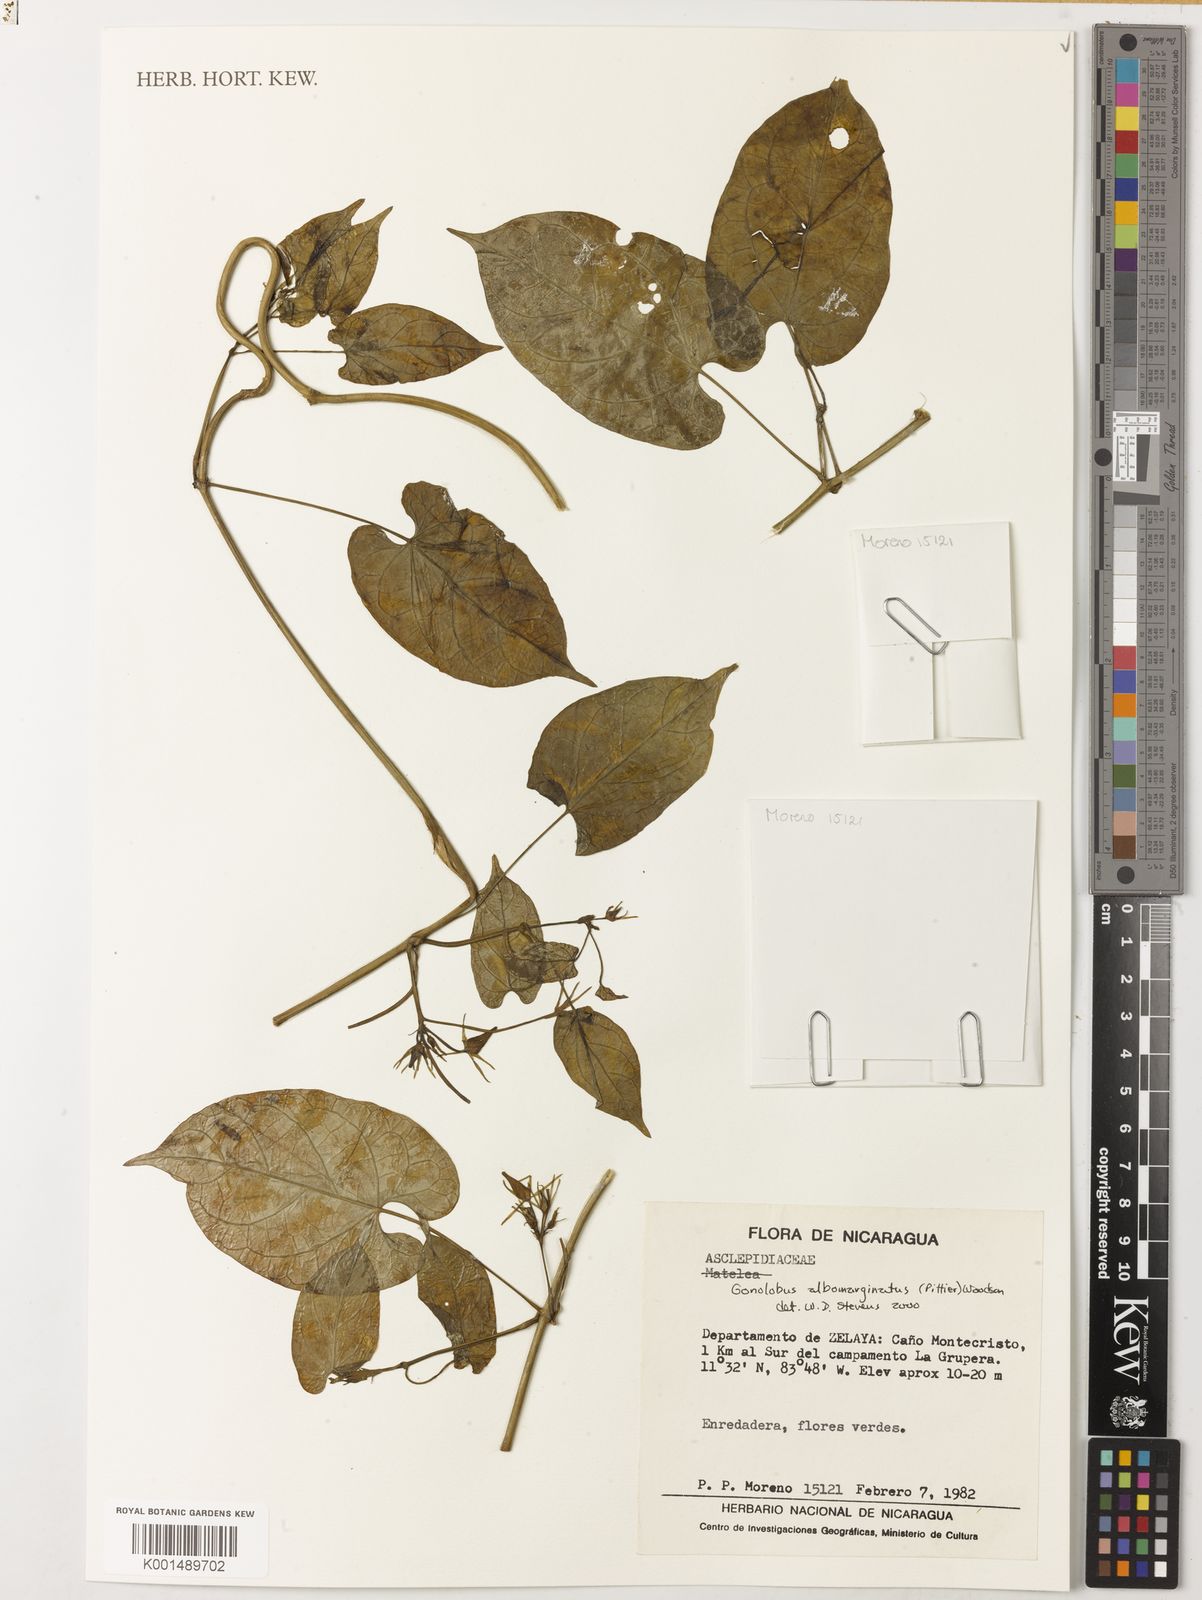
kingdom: Plantae
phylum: Tracheophyta
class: Magnoliopsida
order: Gentianales
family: Apocynaceae
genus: Gonolobus
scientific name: Gonolobus albomarginatus
